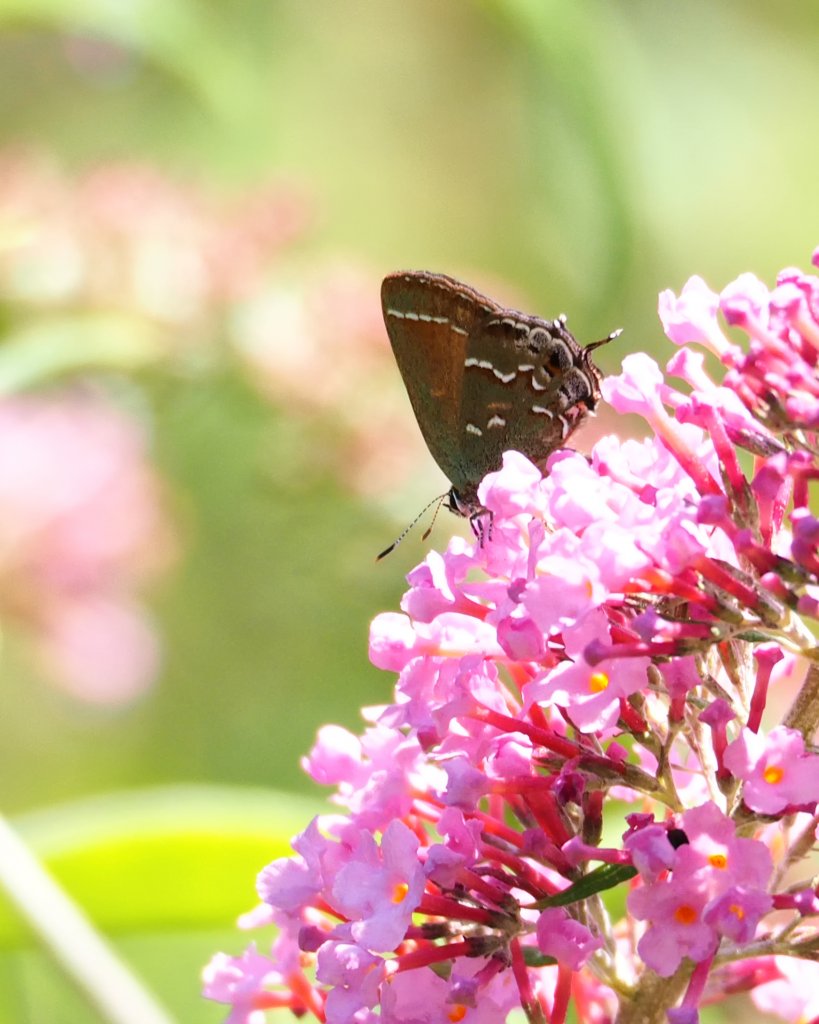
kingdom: Animalia
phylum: Arthropoda
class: Insecta
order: Lepidoptera
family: Lycaenidae
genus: Mitoura
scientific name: Mitoura gryneus
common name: Juniper Hairstreak
